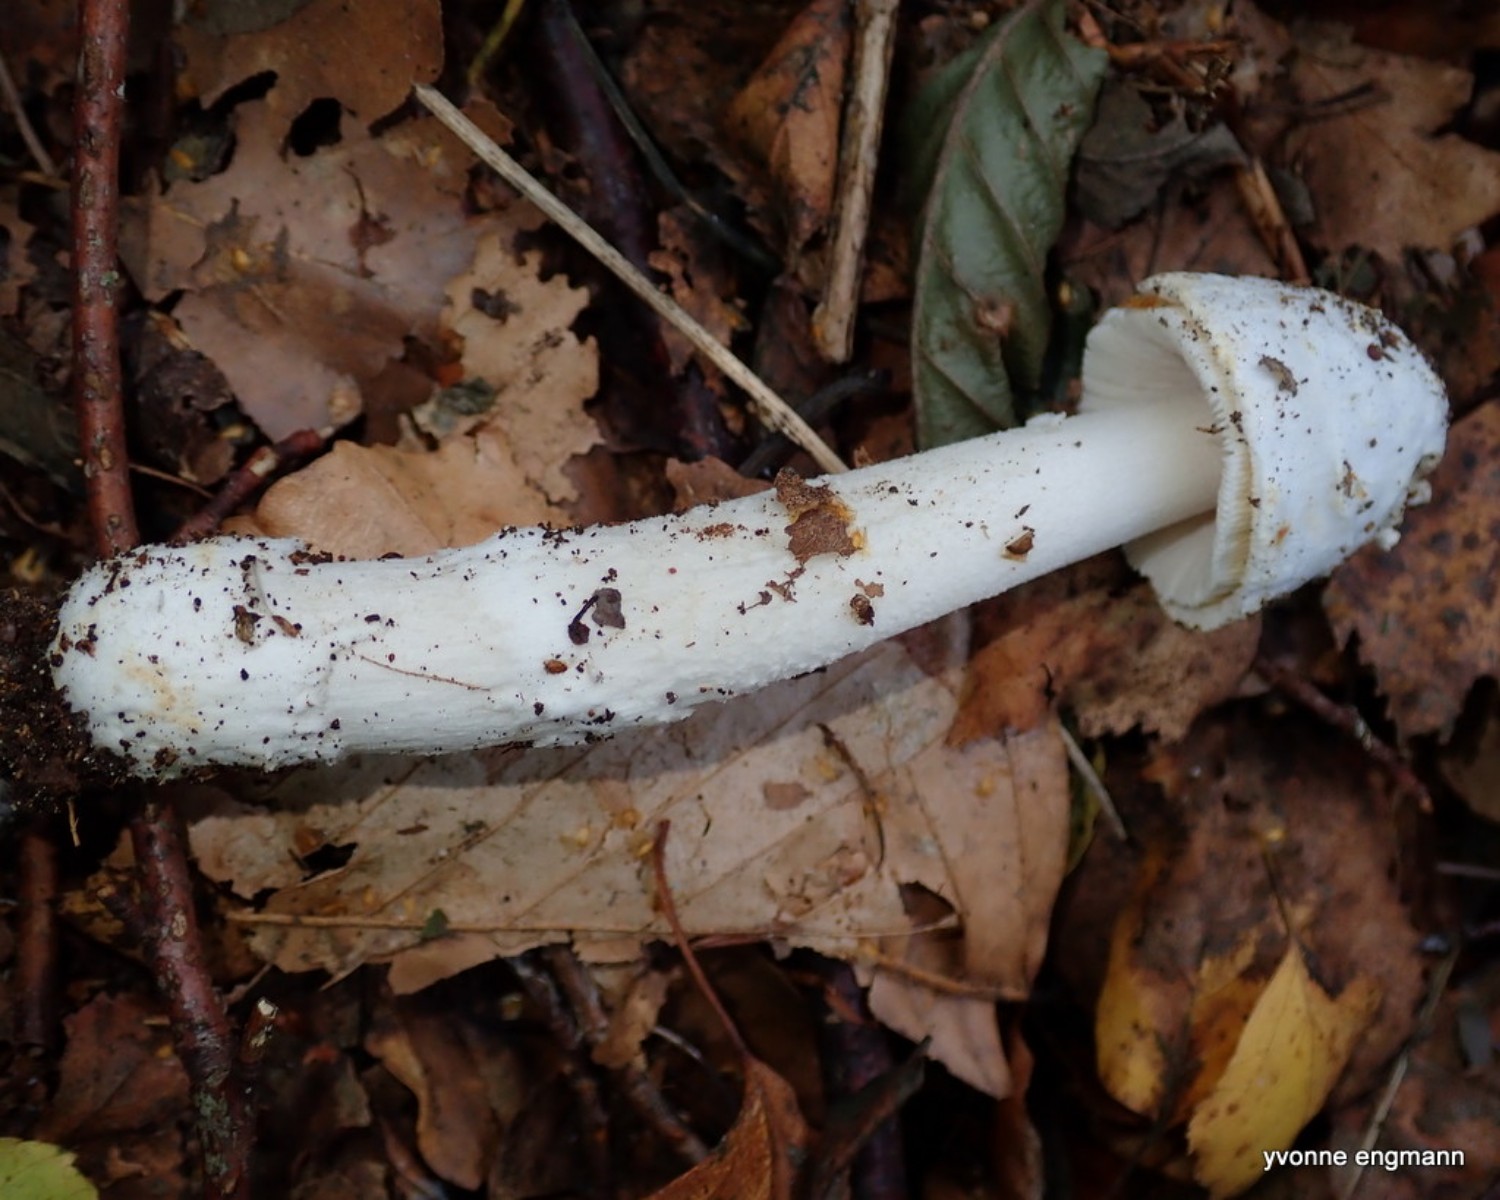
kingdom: Fungi
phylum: Basidiomycota
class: Agaricomycetes
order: Agaricales
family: Amanitaceae
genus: Amanita
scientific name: Amanita
